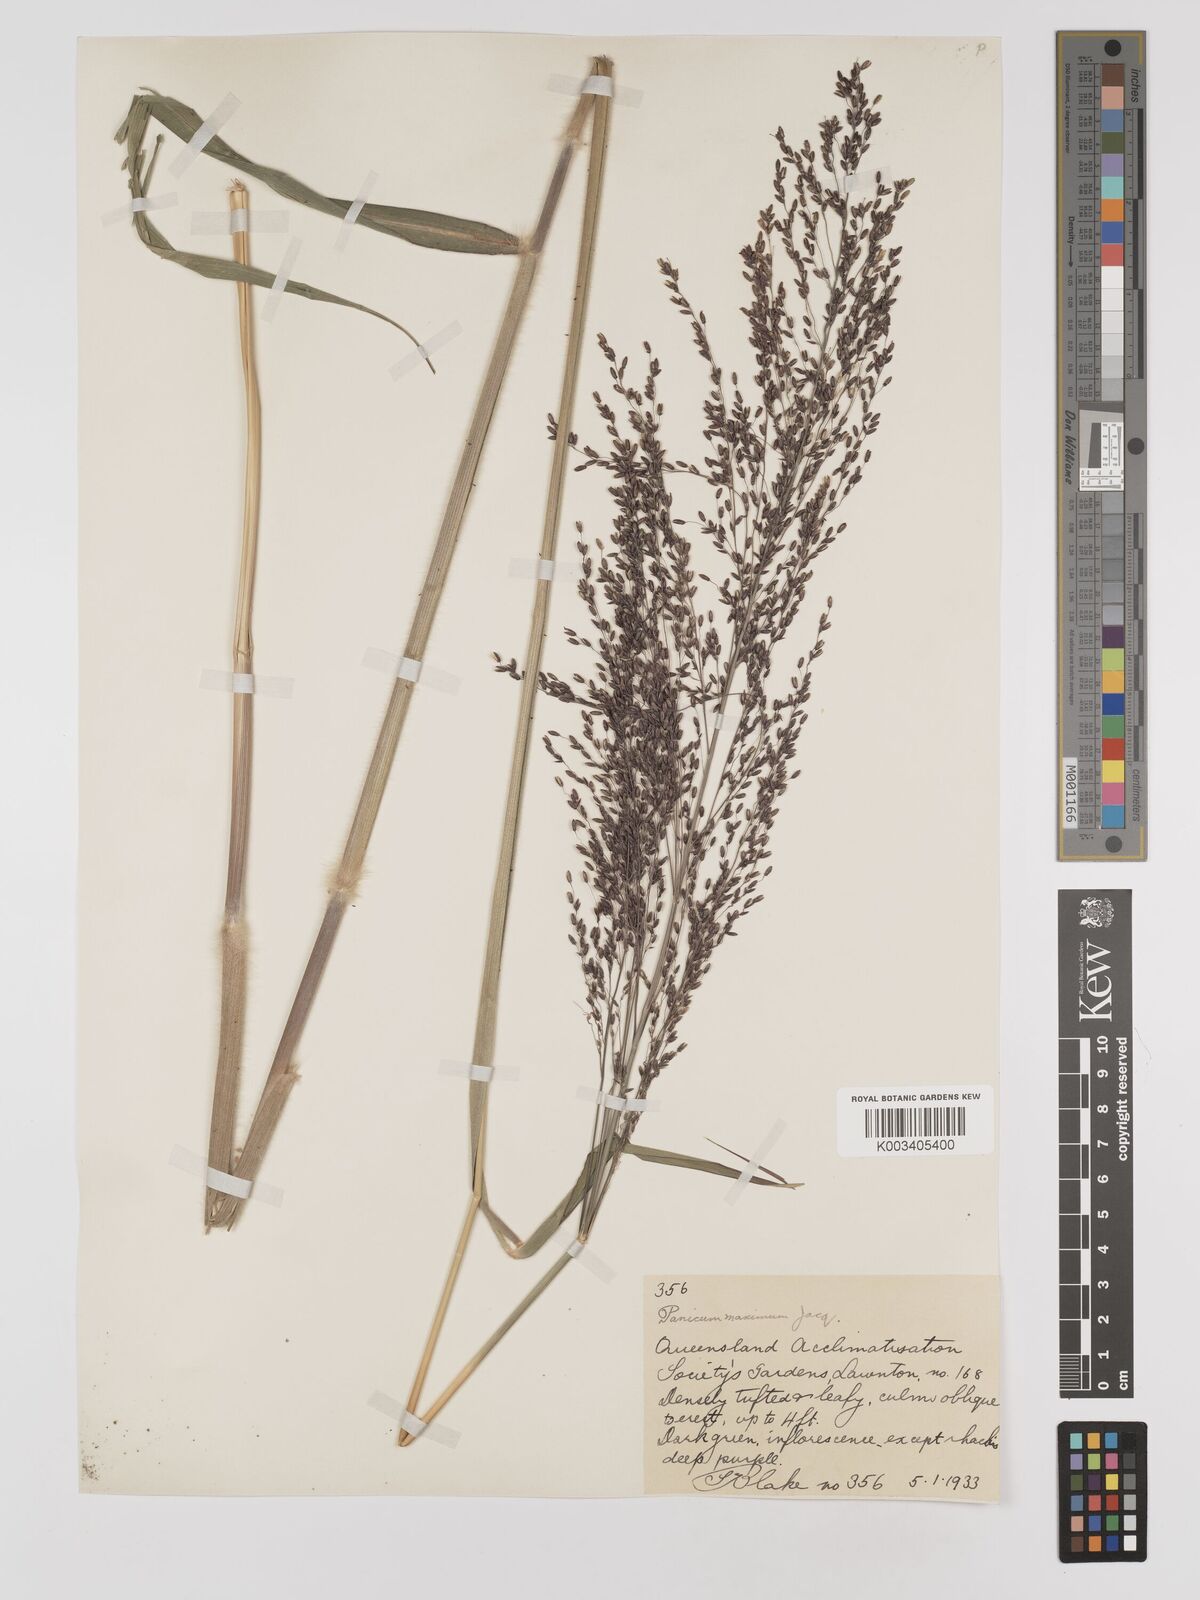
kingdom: Plantae
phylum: Tracheophyta
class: Liliopsida
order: Poales
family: Poaceae
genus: Megathyrsus
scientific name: Megathyrsus maximus
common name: Guineagrass
